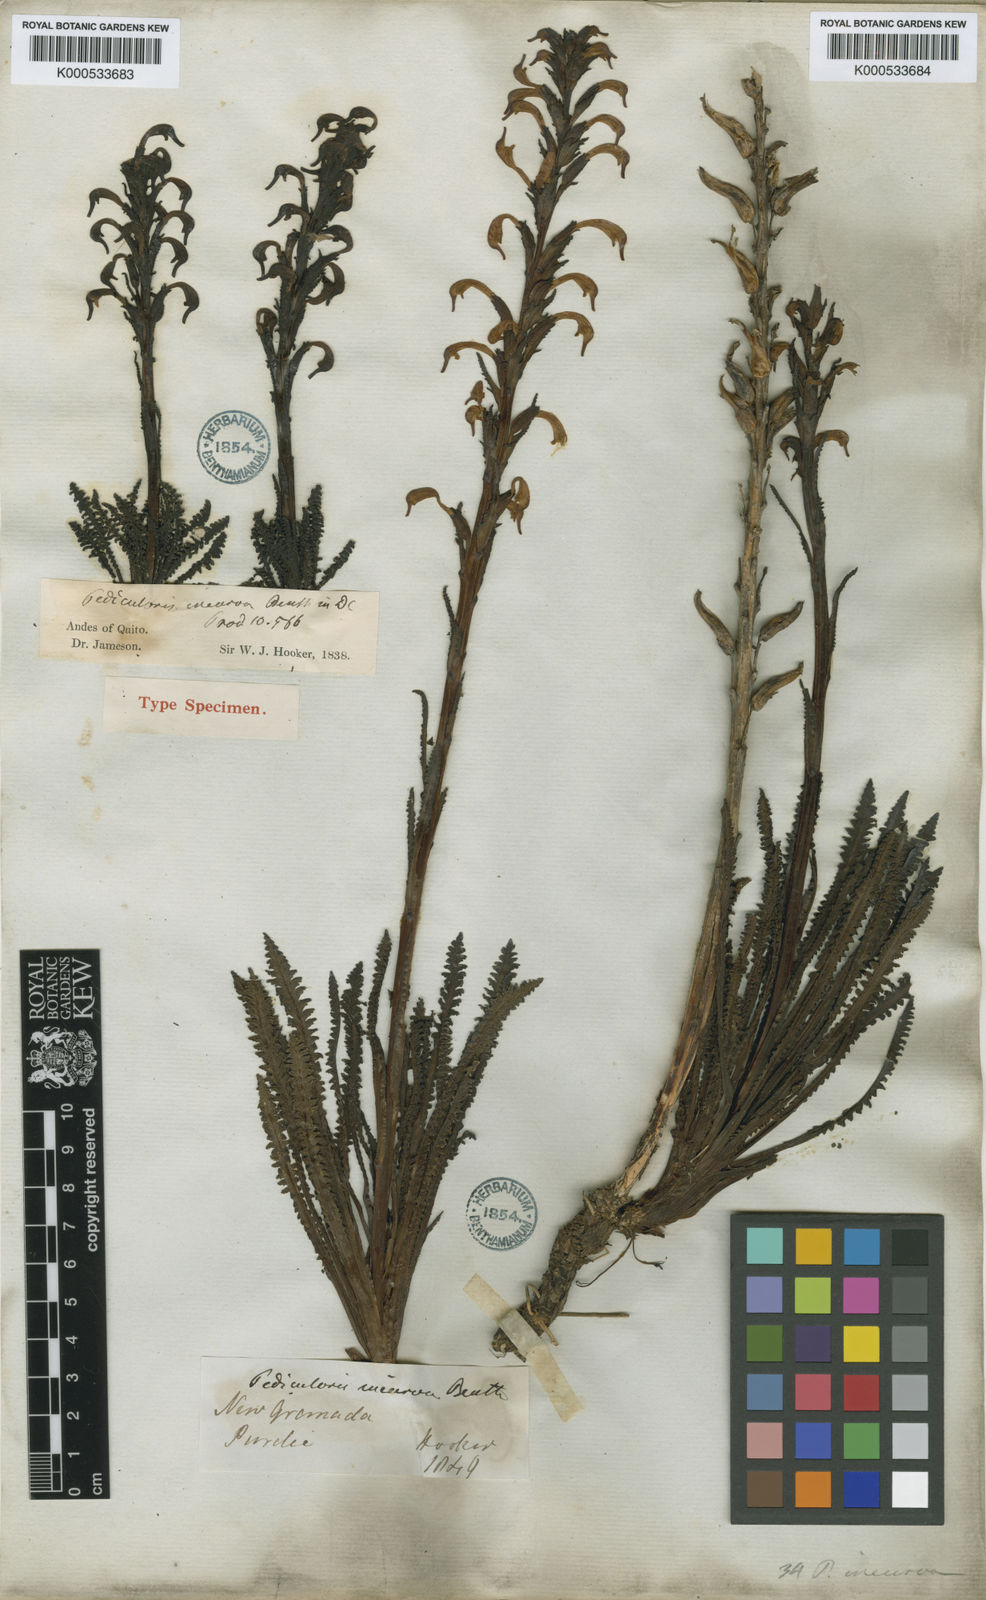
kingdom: Plantae
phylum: Tracheophyta
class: Magnoliopsida
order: Lamiales
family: Orobanchaceae
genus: Pedicularis
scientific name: Pedicularis incurva
